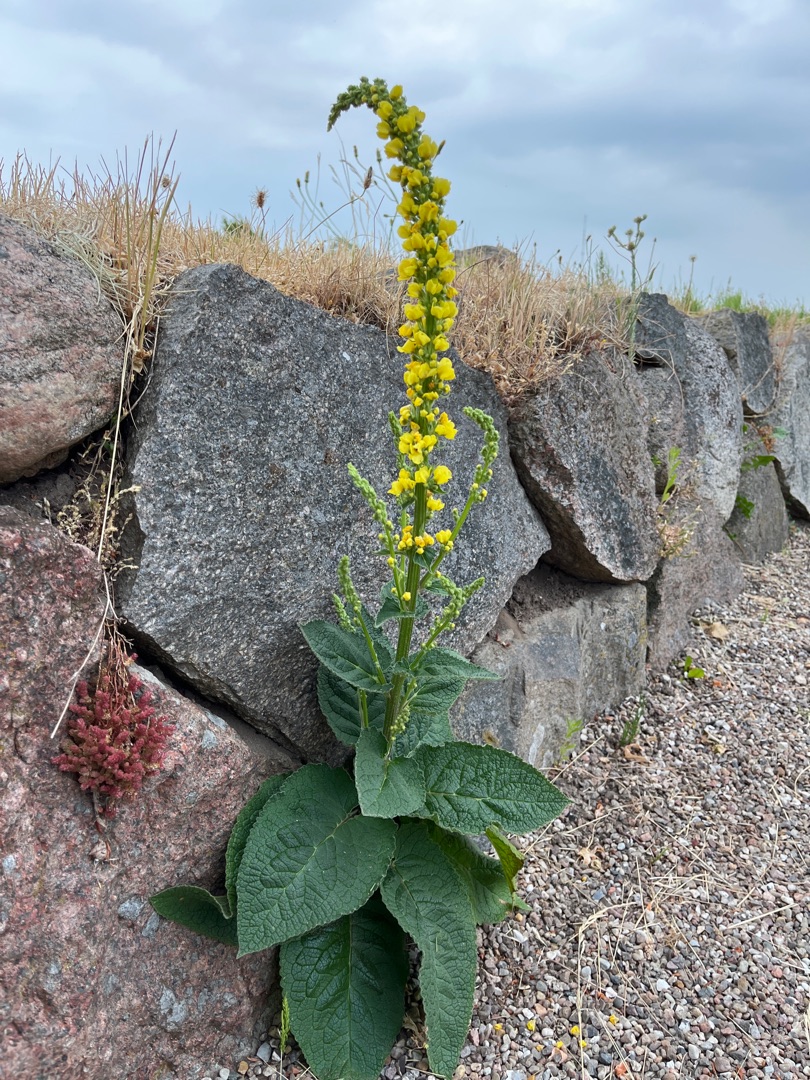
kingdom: Plantae
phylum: Tracheophyta
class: Magnoliopsida
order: Lamiales
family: Scrophulariaceae
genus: Verbascum
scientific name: Verbascum nigrum
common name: Mørk kongelys
